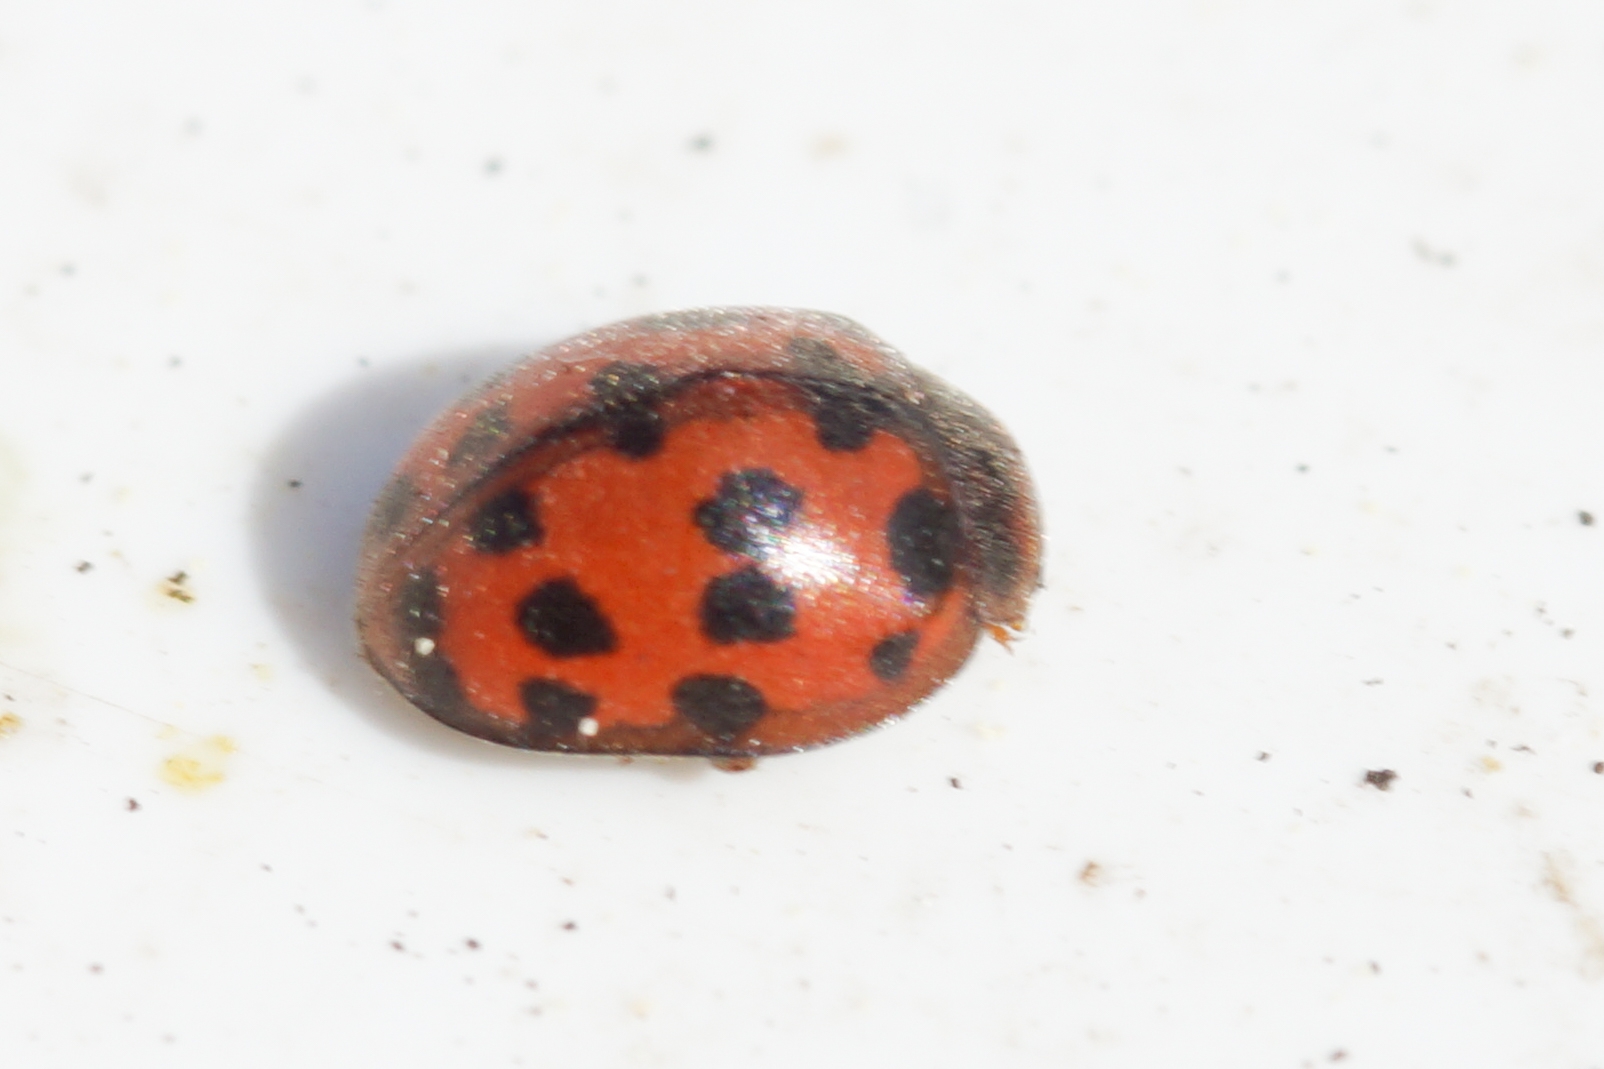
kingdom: Animalia
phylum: Arthropoda
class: Insecta
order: Coleoptera
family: Coccinellidae
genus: Subcoccinella
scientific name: Subcoccinella vigintiquatuorpunctata
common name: Fireogtyveplettet mariehøne
